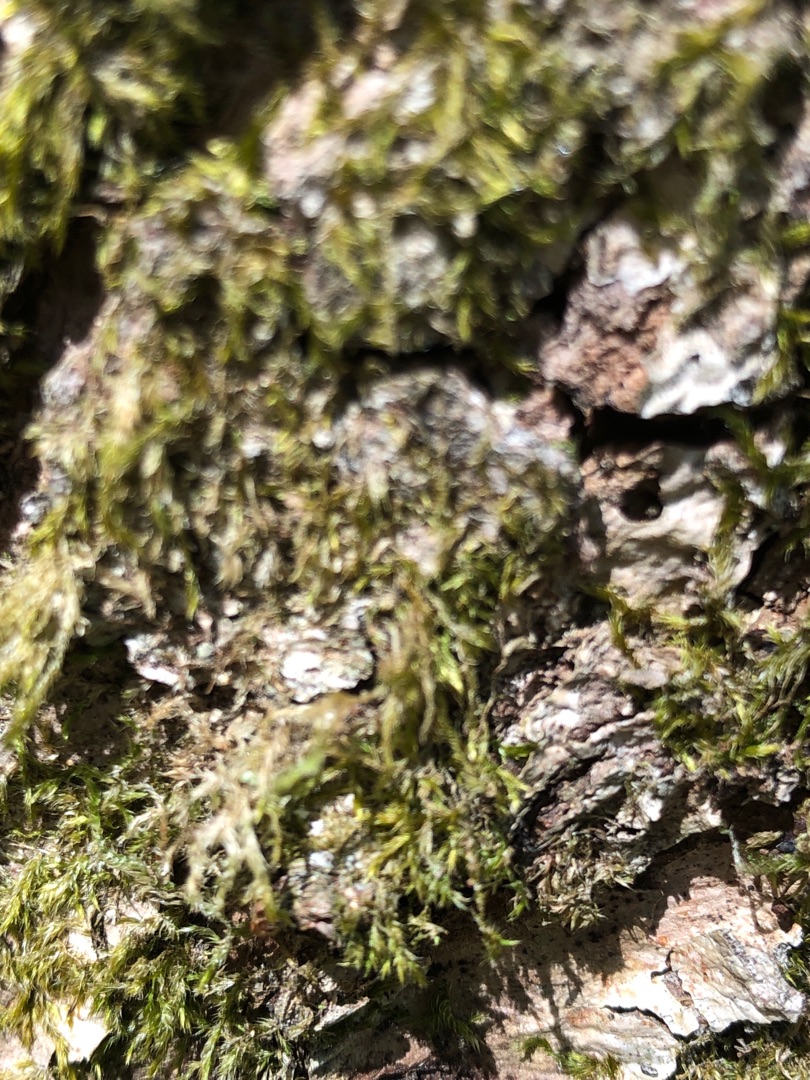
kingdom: Plantae
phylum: Bryophyta
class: Bryopsida
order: Hypnales
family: Hypnaceae
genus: Hypnum
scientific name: Hypnum
